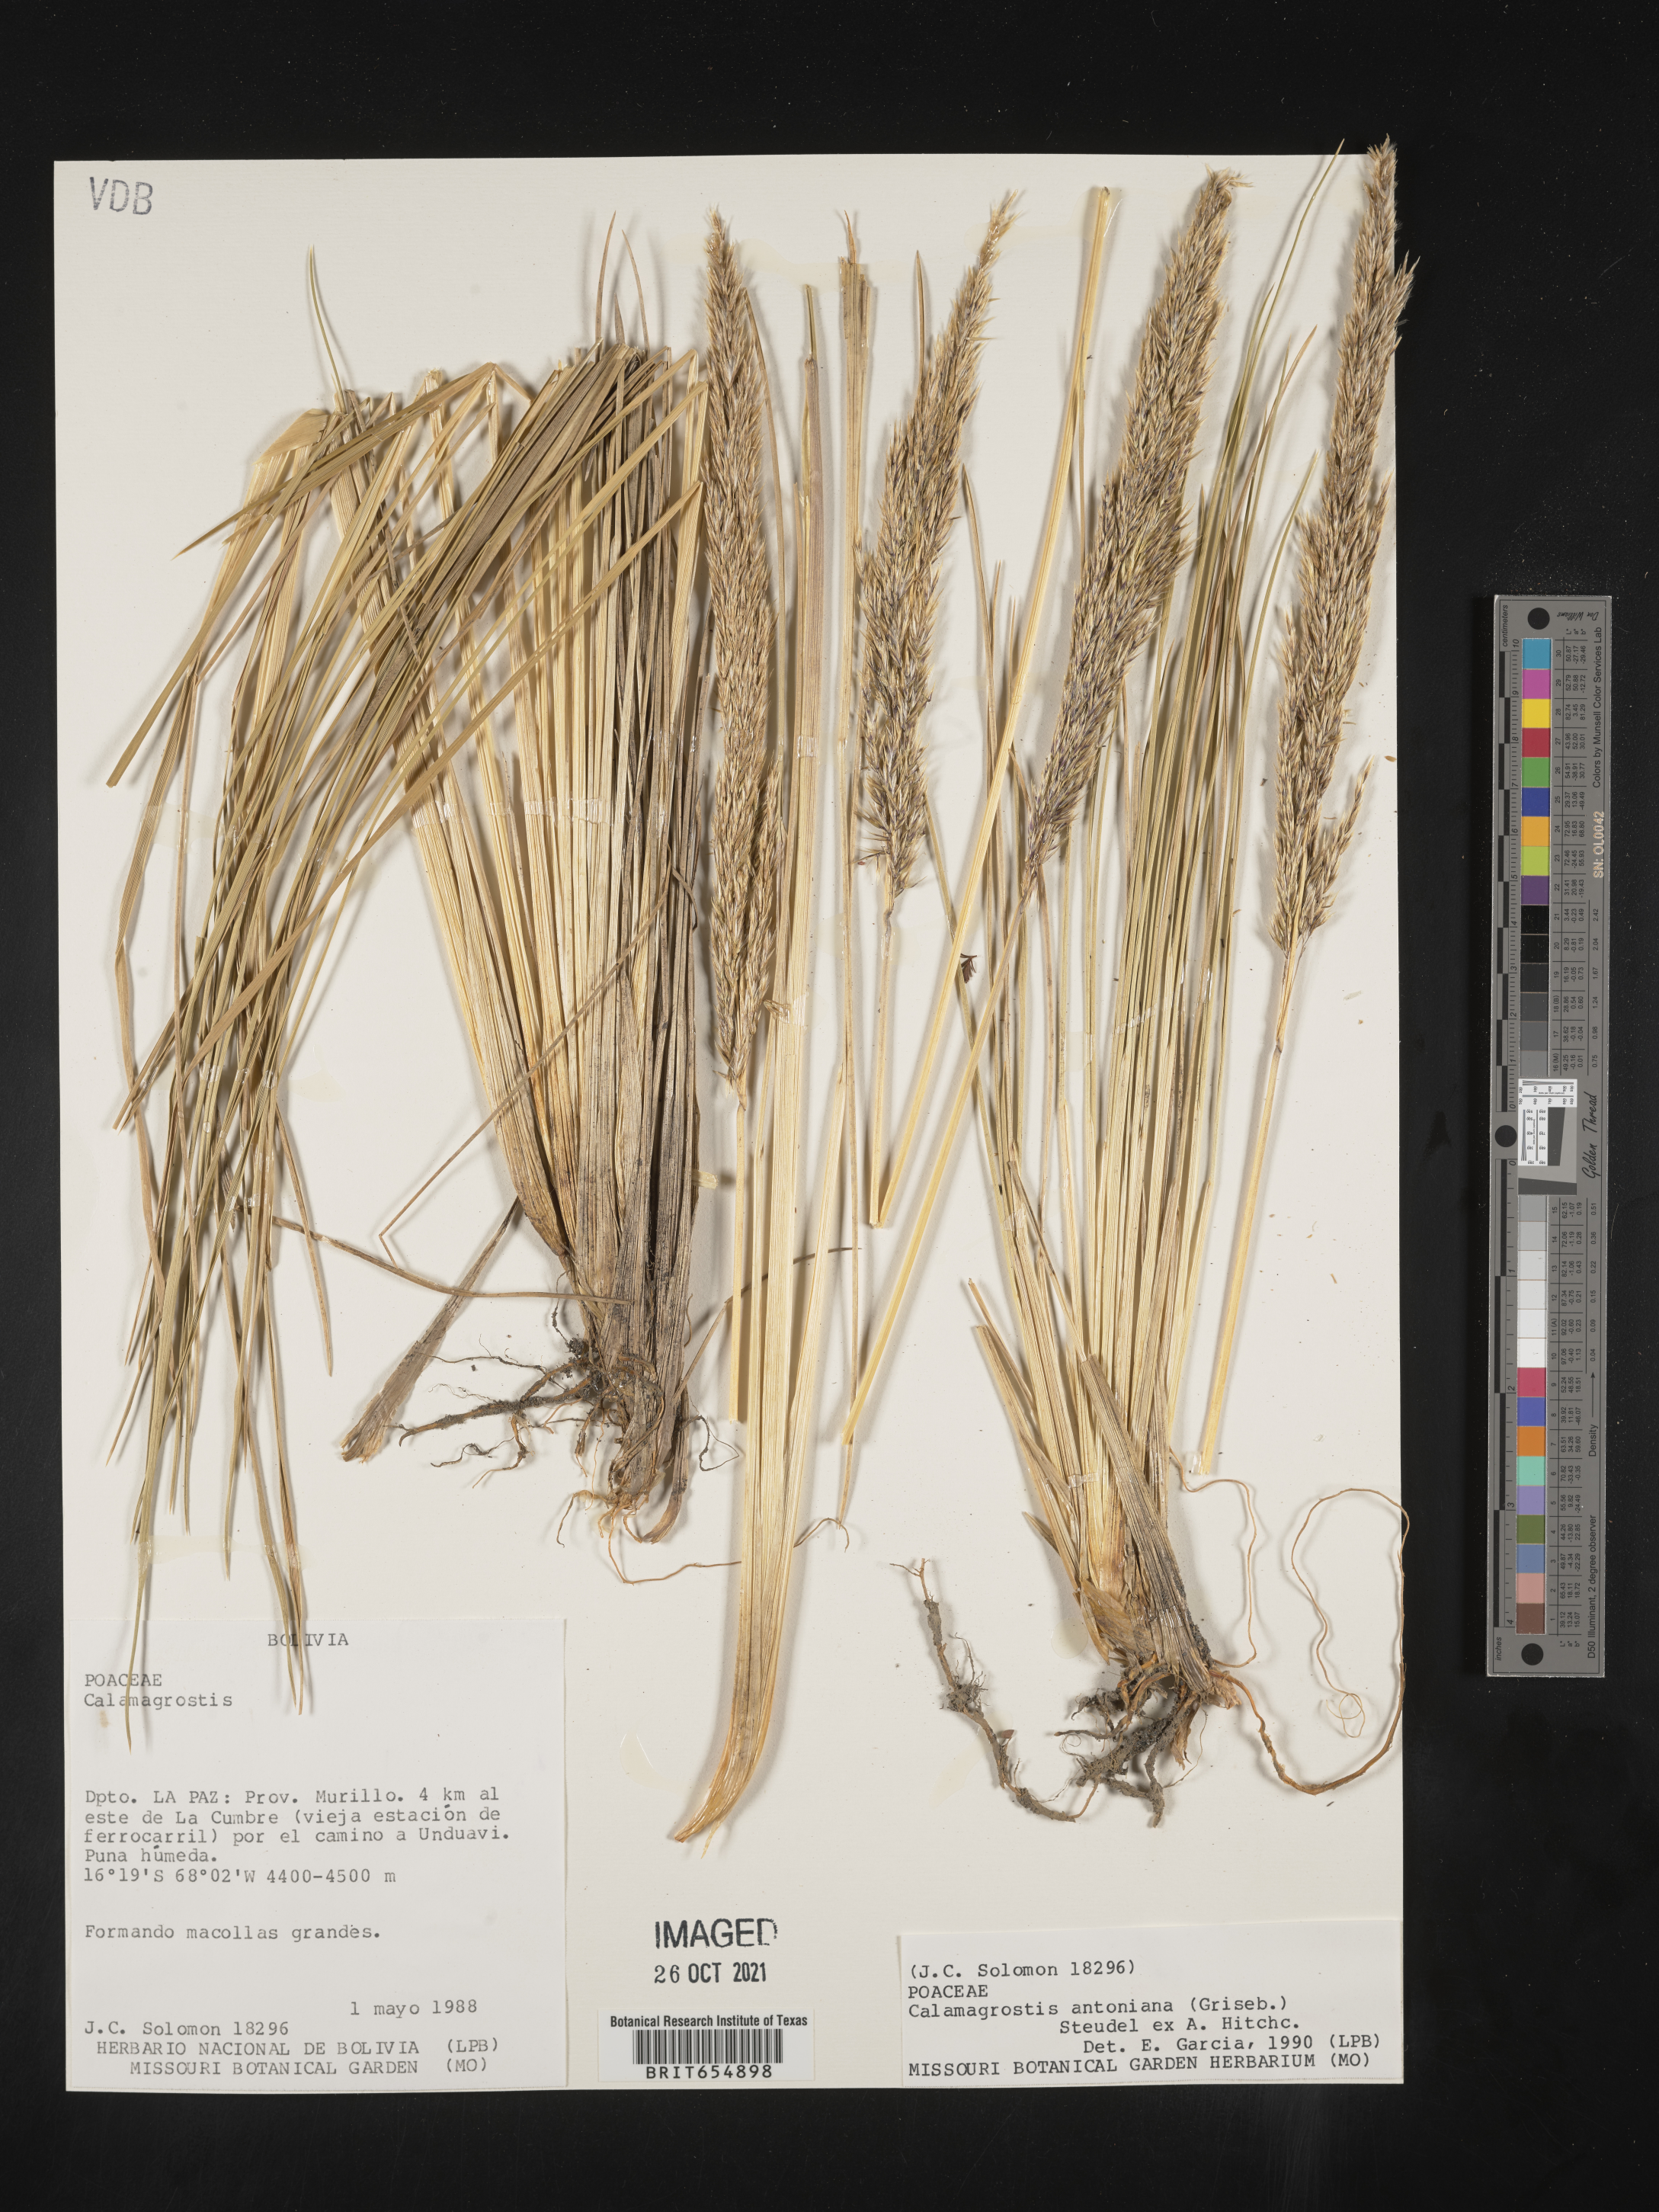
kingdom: Plantae
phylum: Tracheophyta
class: Liliopsida
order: Poales
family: Poaceae
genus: Calamagrostis
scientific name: Calamagrostis
